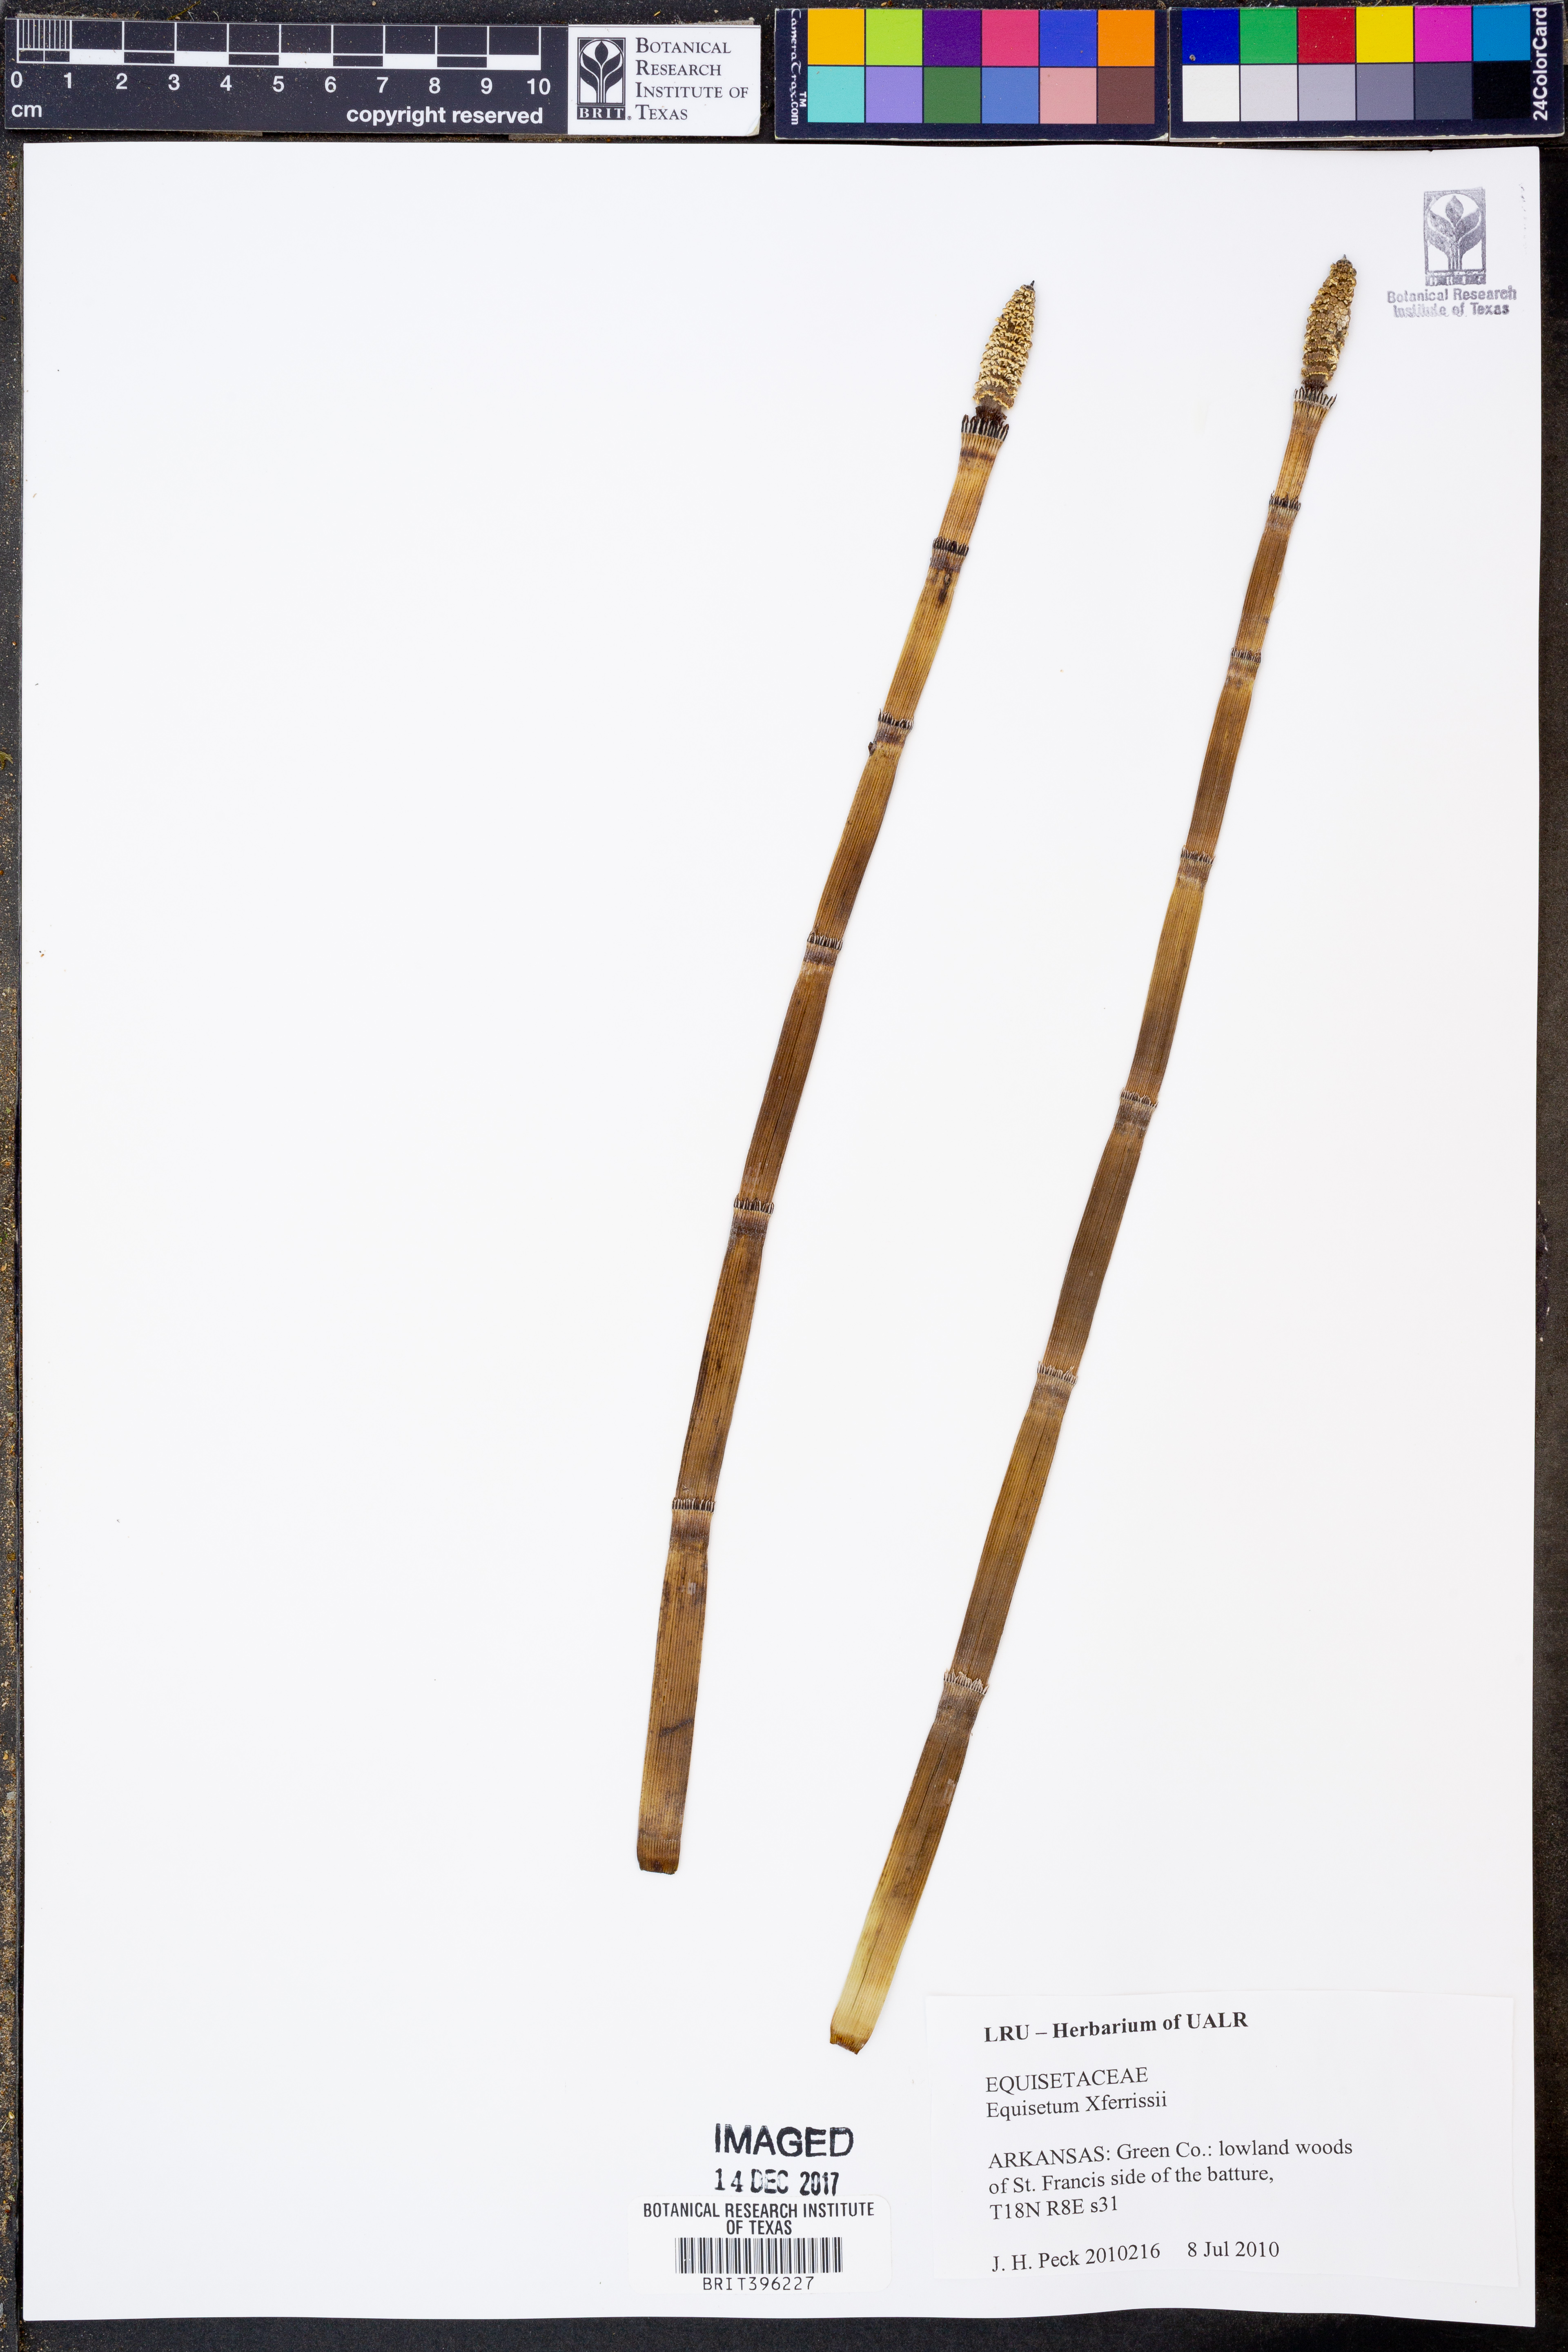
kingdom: Plantae
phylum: Tracheophyta
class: Polypodiopsida
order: Equisetales
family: Equisetaceae
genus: Equisetum
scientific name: Equisetum ferrissii
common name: Ferriss' horsetail
